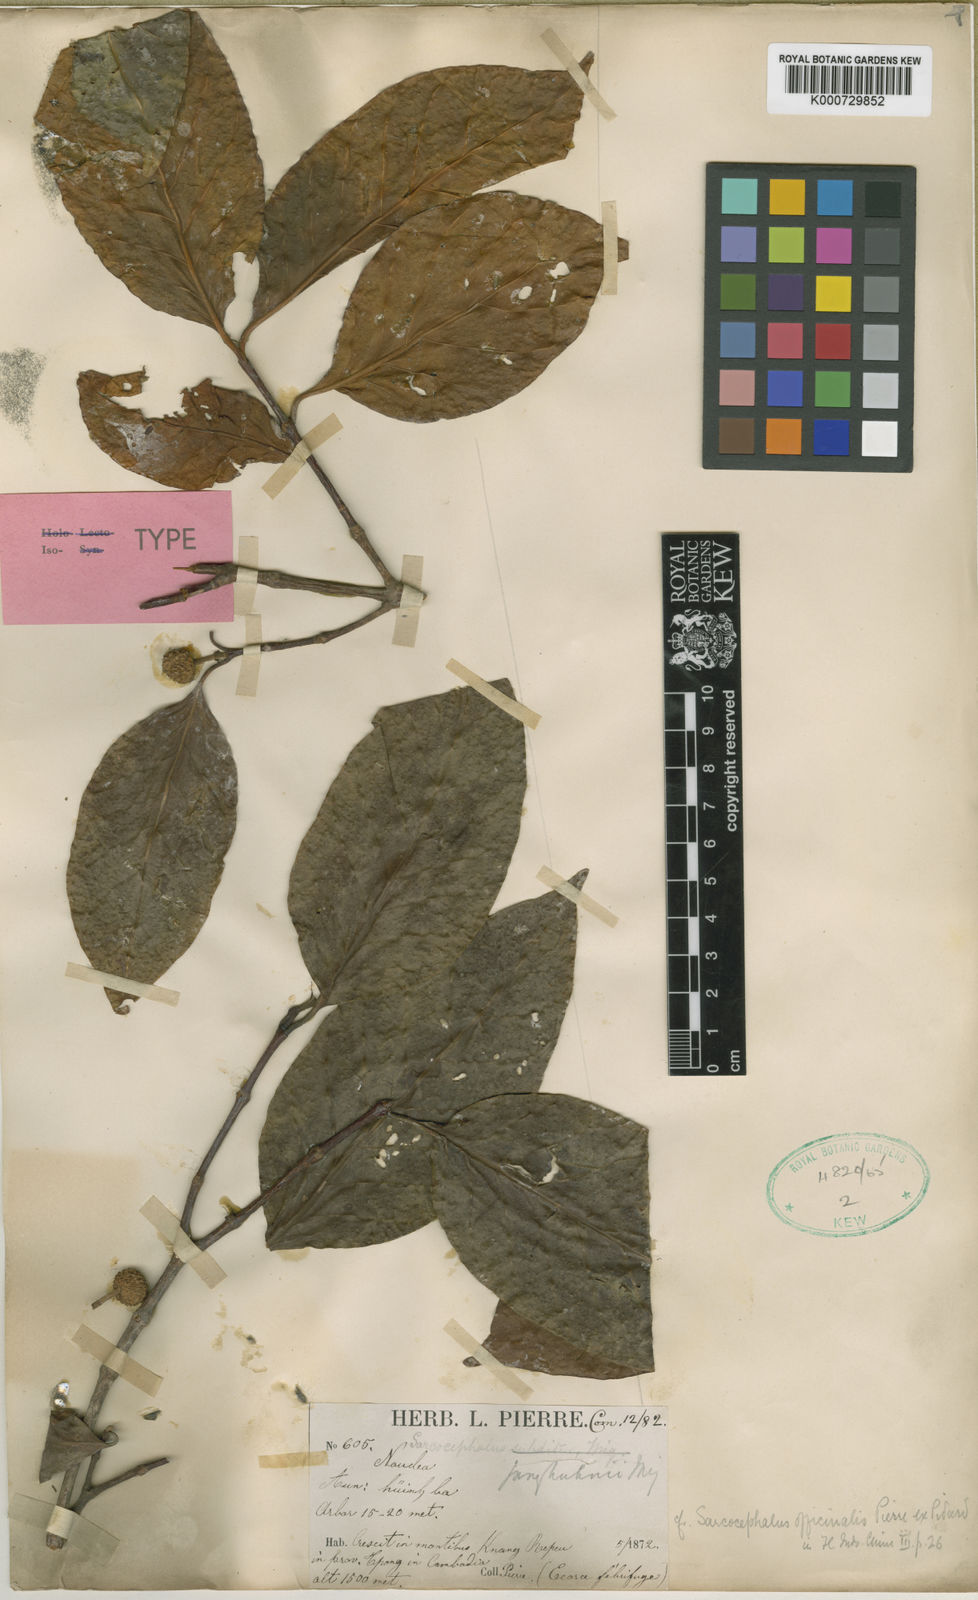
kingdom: Plantae
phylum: Tracheophyta
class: Magnoliopsida
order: Gentianales
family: Rubiaceae
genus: Nauclea
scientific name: Nauclea officinalis
